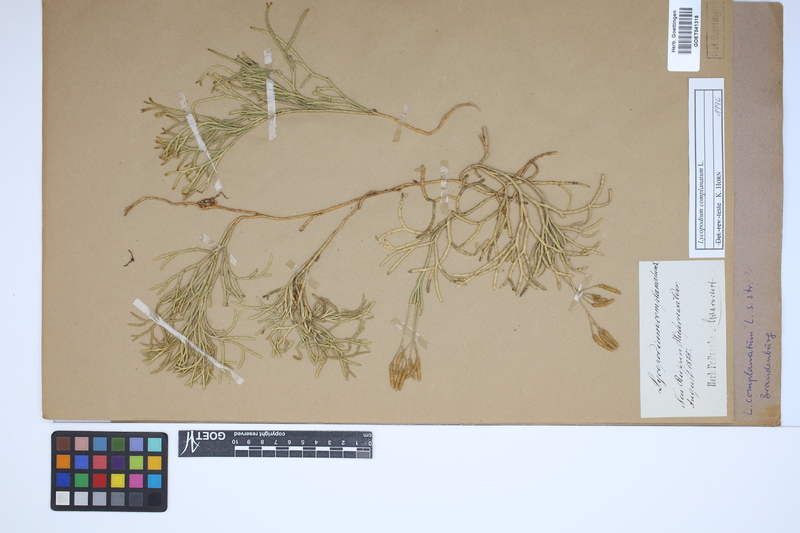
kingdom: Plantae
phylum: Tracheophyta
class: Lycopodiopsida
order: Lycopodiales
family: Lycopodiaceae
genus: Diphasiastrum
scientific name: Diphasiastrum complanatum
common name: Northern running-pine
